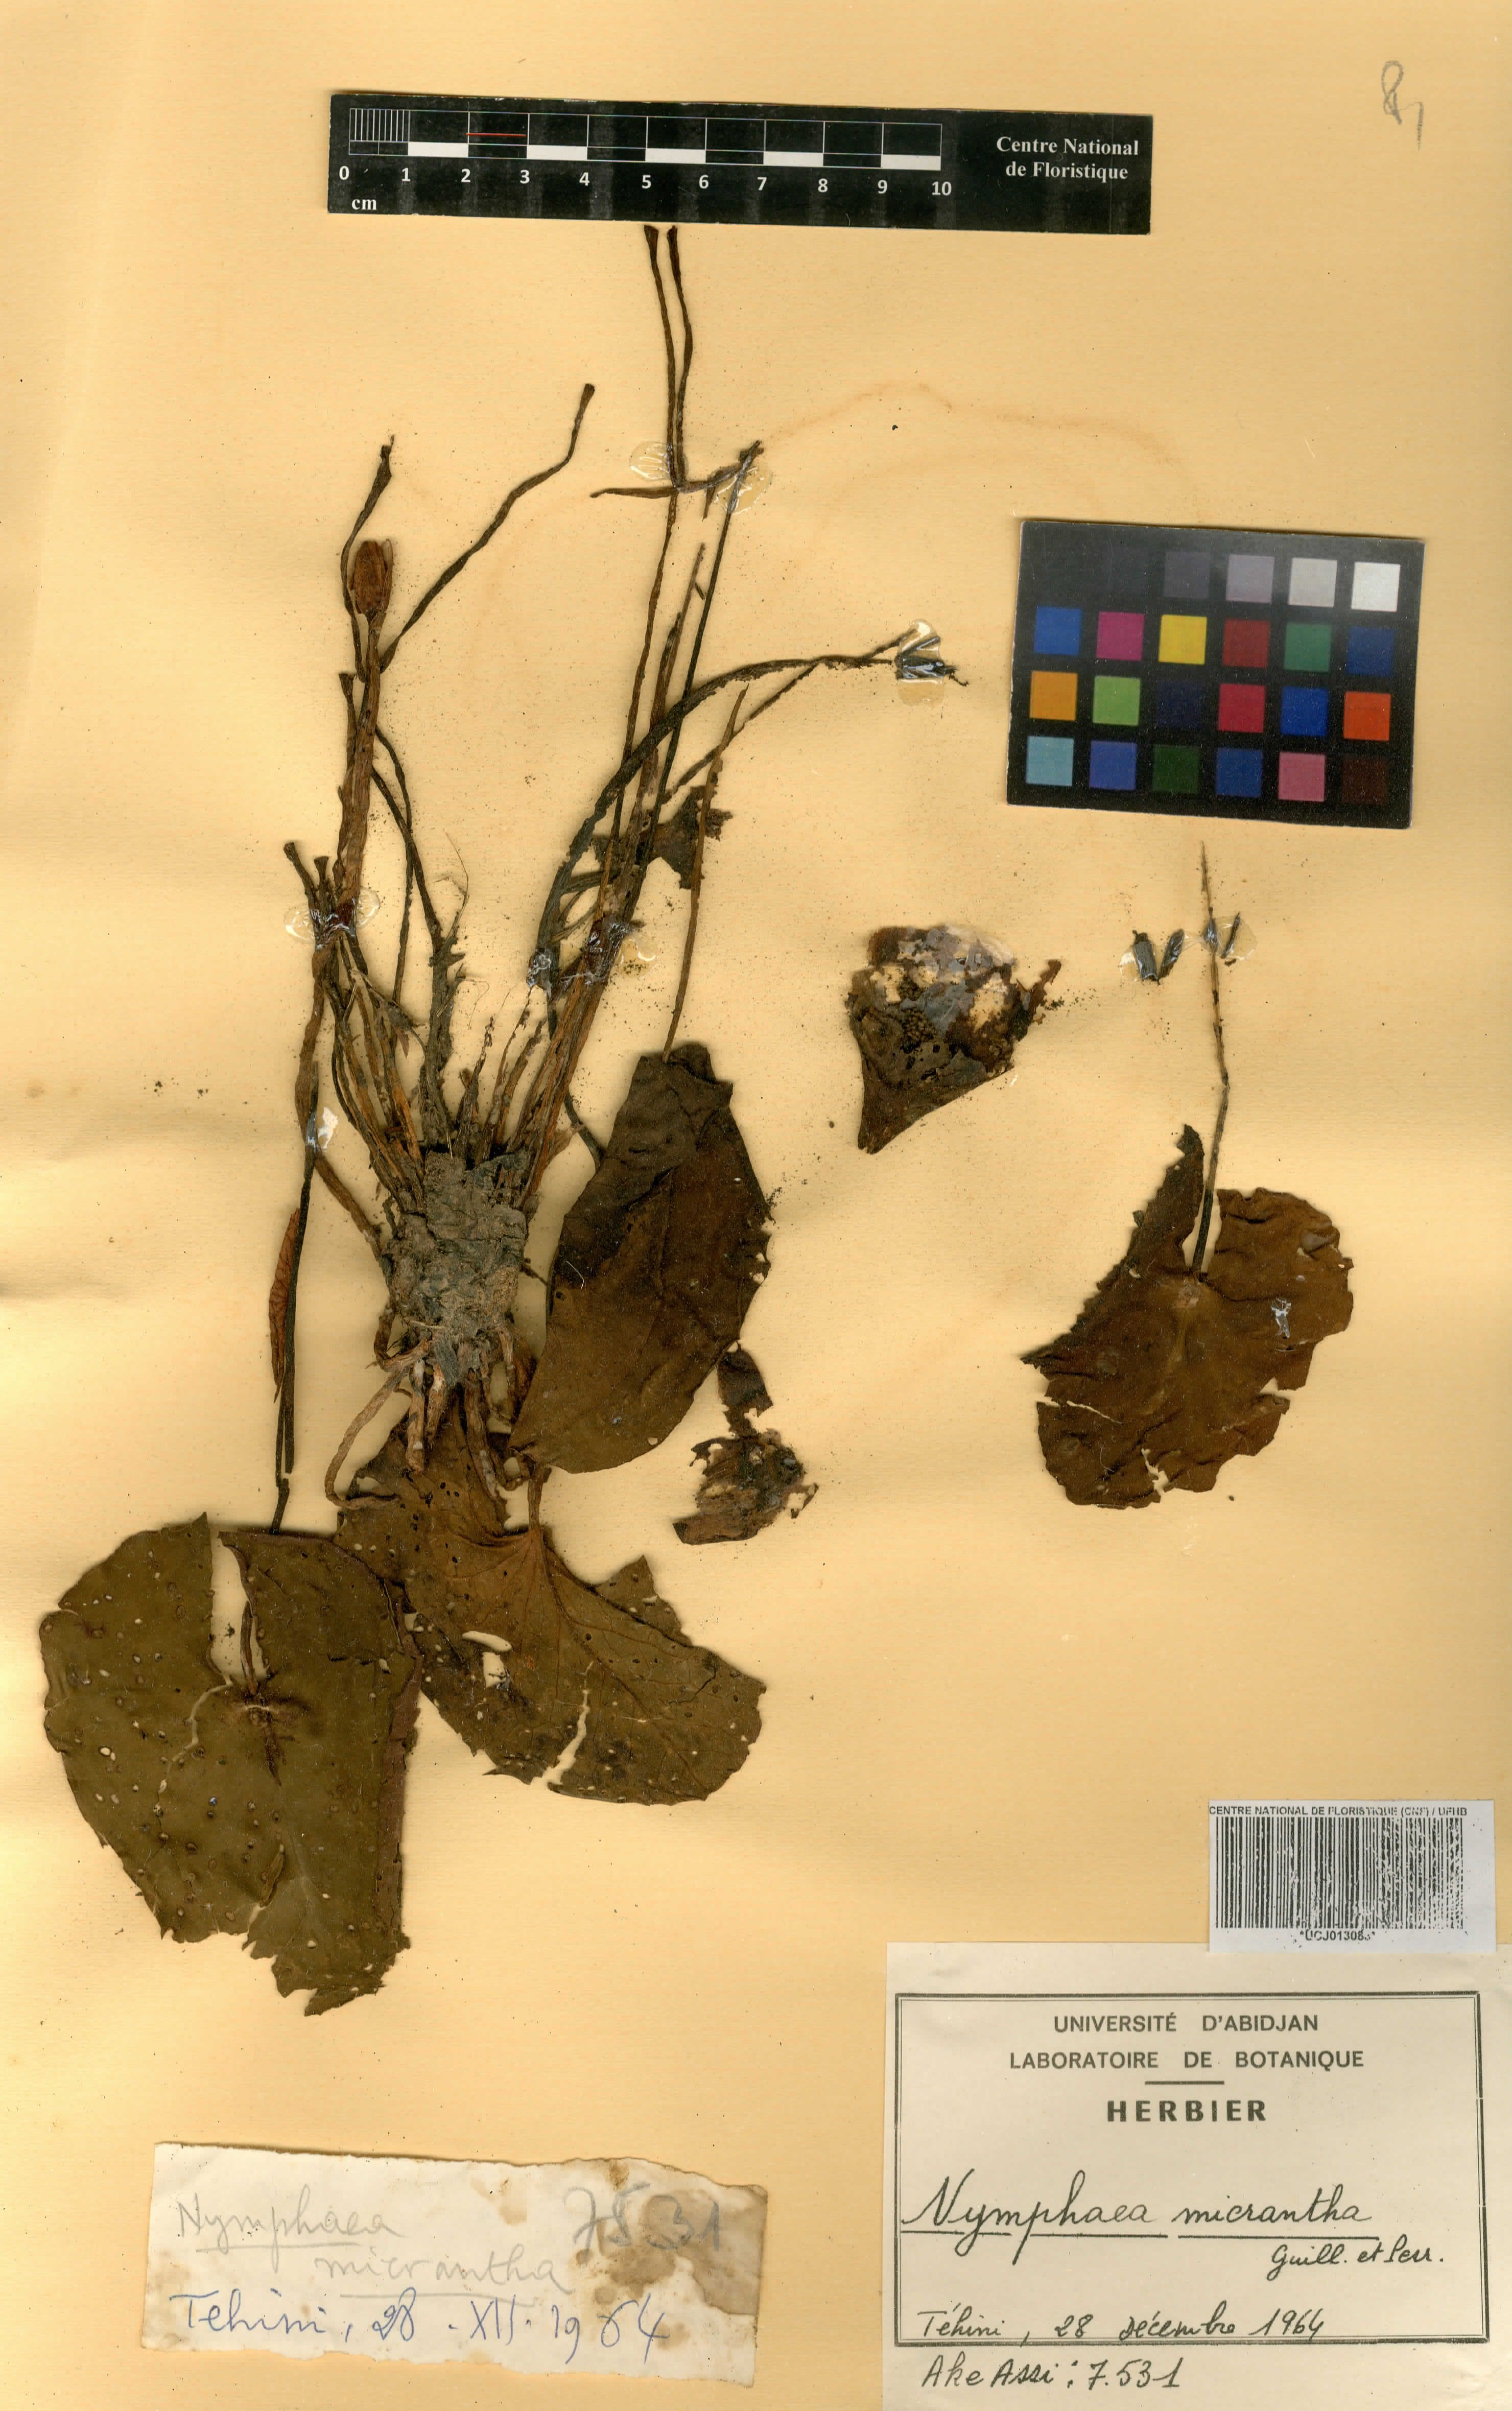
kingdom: Plantae
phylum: Tracheophyta
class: Magnoliopsida
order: Nymphaeales
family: Nymphaeaceae
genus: Nymphaea
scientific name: Nymphaea micrantha
